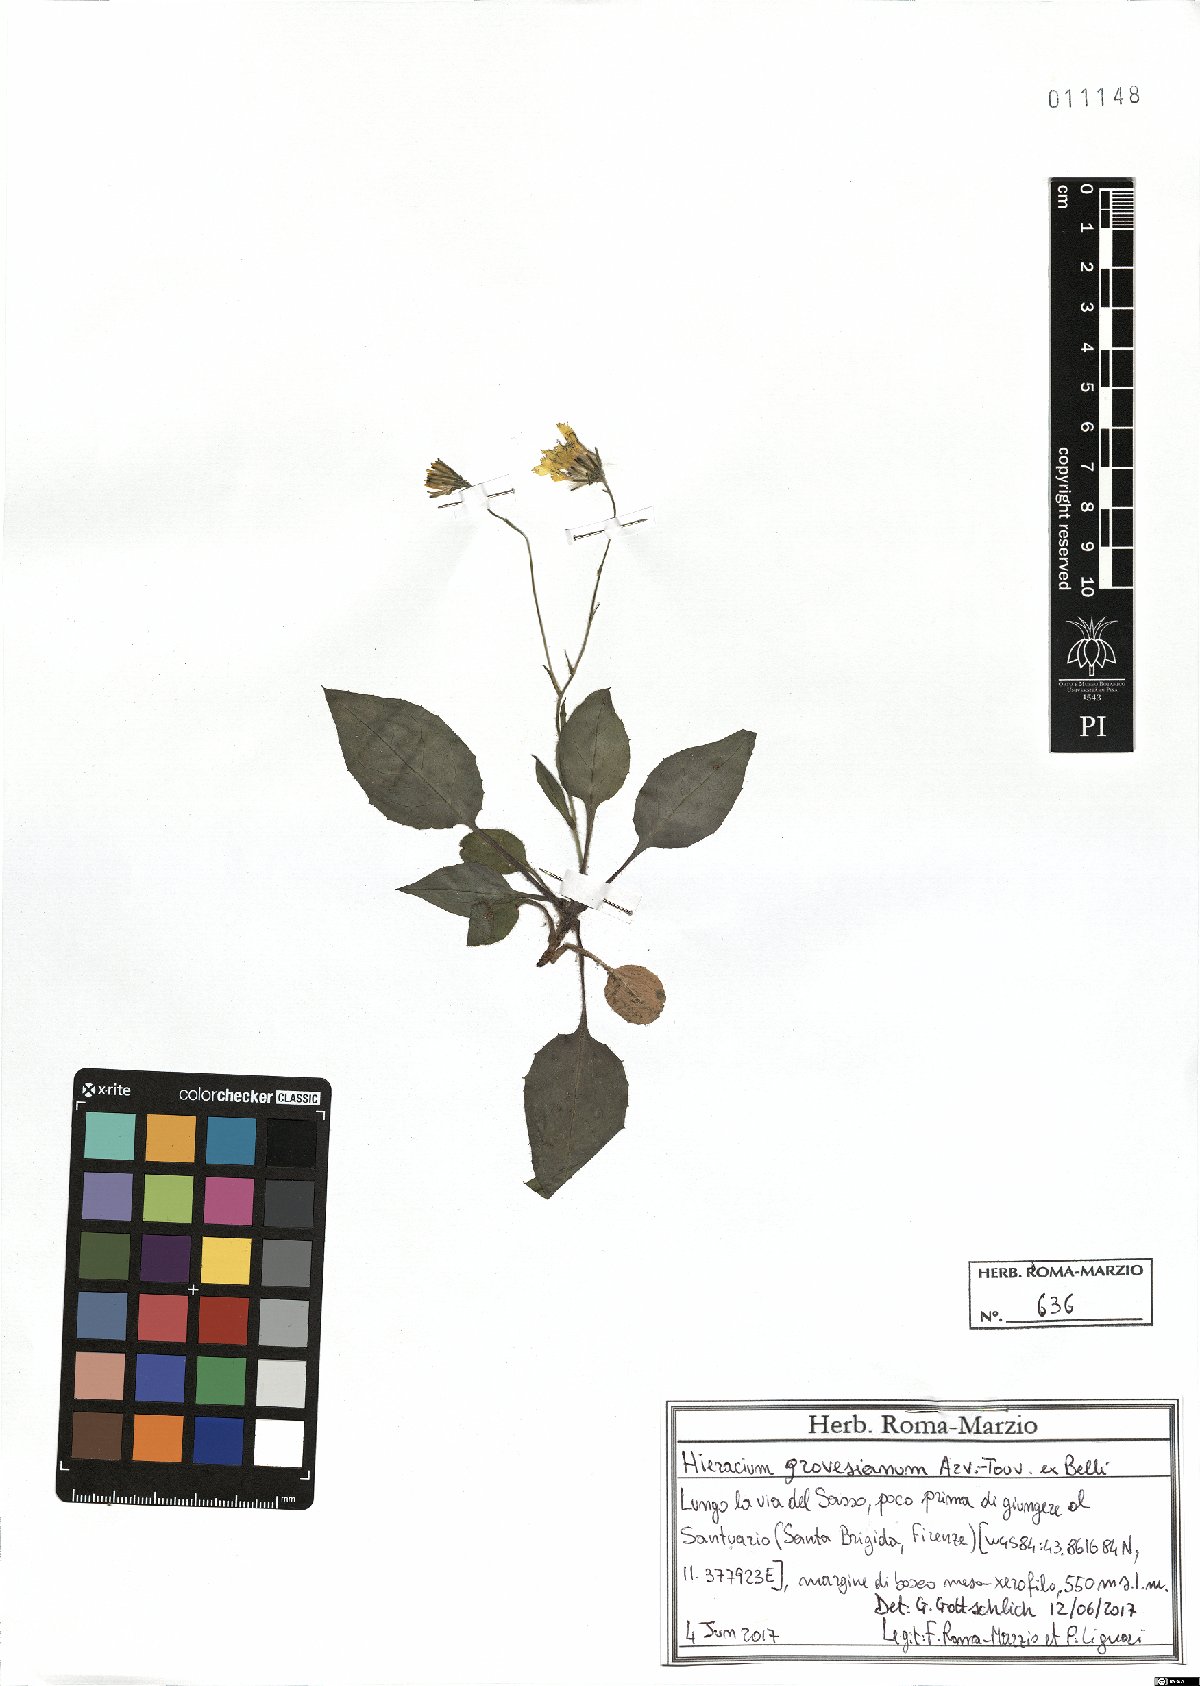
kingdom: Plantae
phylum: Tracheophyta
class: Magnoliopsida
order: Asterales
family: Asteraceae
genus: Hieracium
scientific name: Hieracium grovesianum
